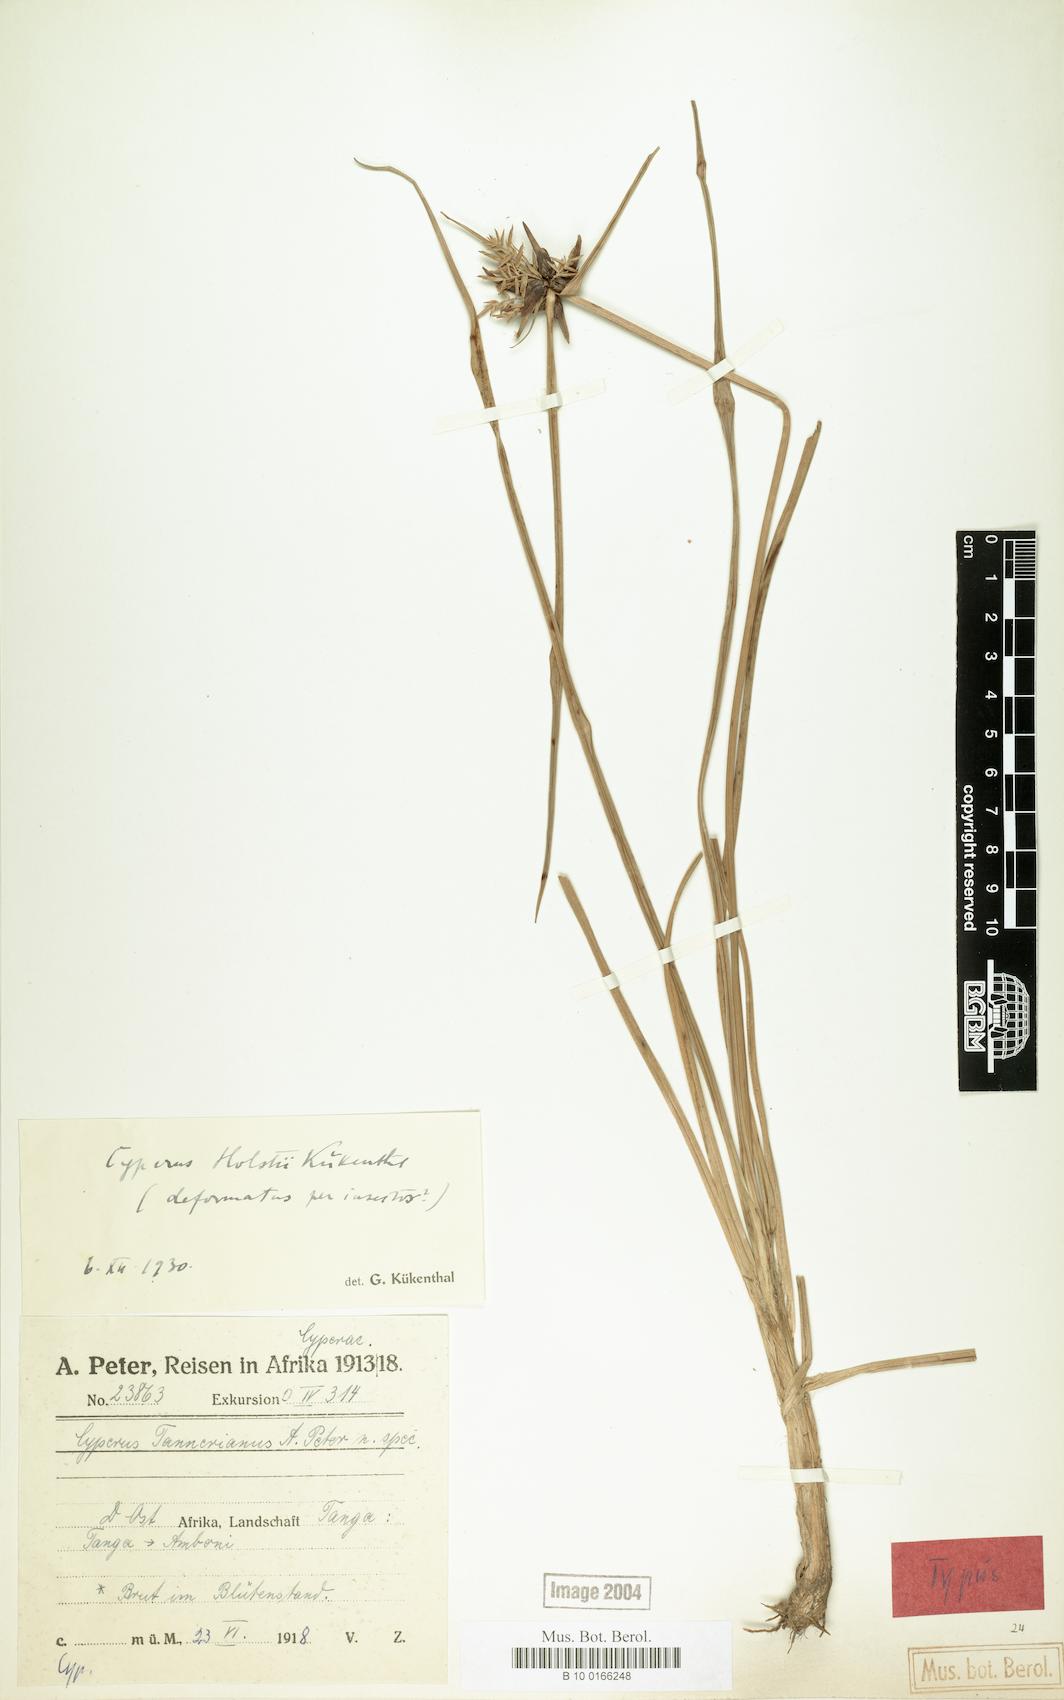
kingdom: Plantae
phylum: Tracheophyta
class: Liliopsida
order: Poales
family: Cyperaceae
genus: Cyperus
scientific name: Cyperus holstii
